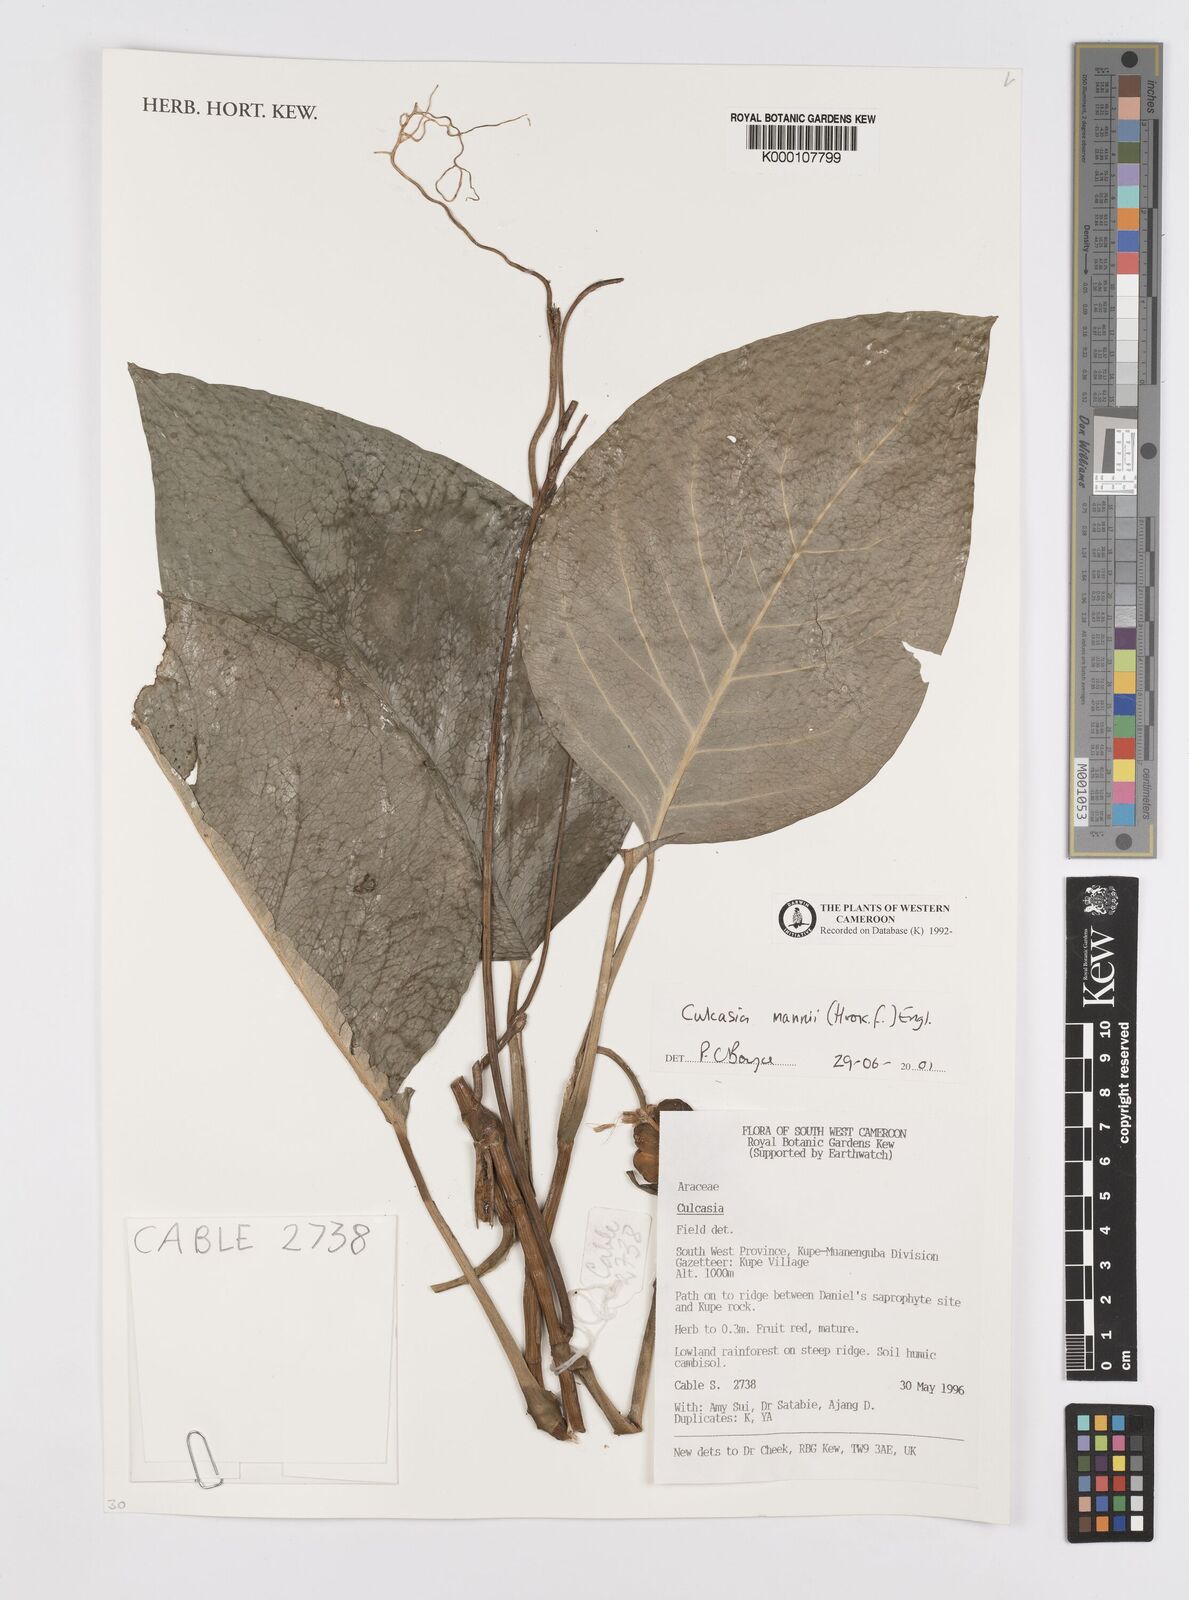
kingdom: Plantae
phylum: Tracheophyta
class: Liliopsida
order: Alismatales
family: Araceae
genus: Culcasia
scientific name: Culcasia mannii
